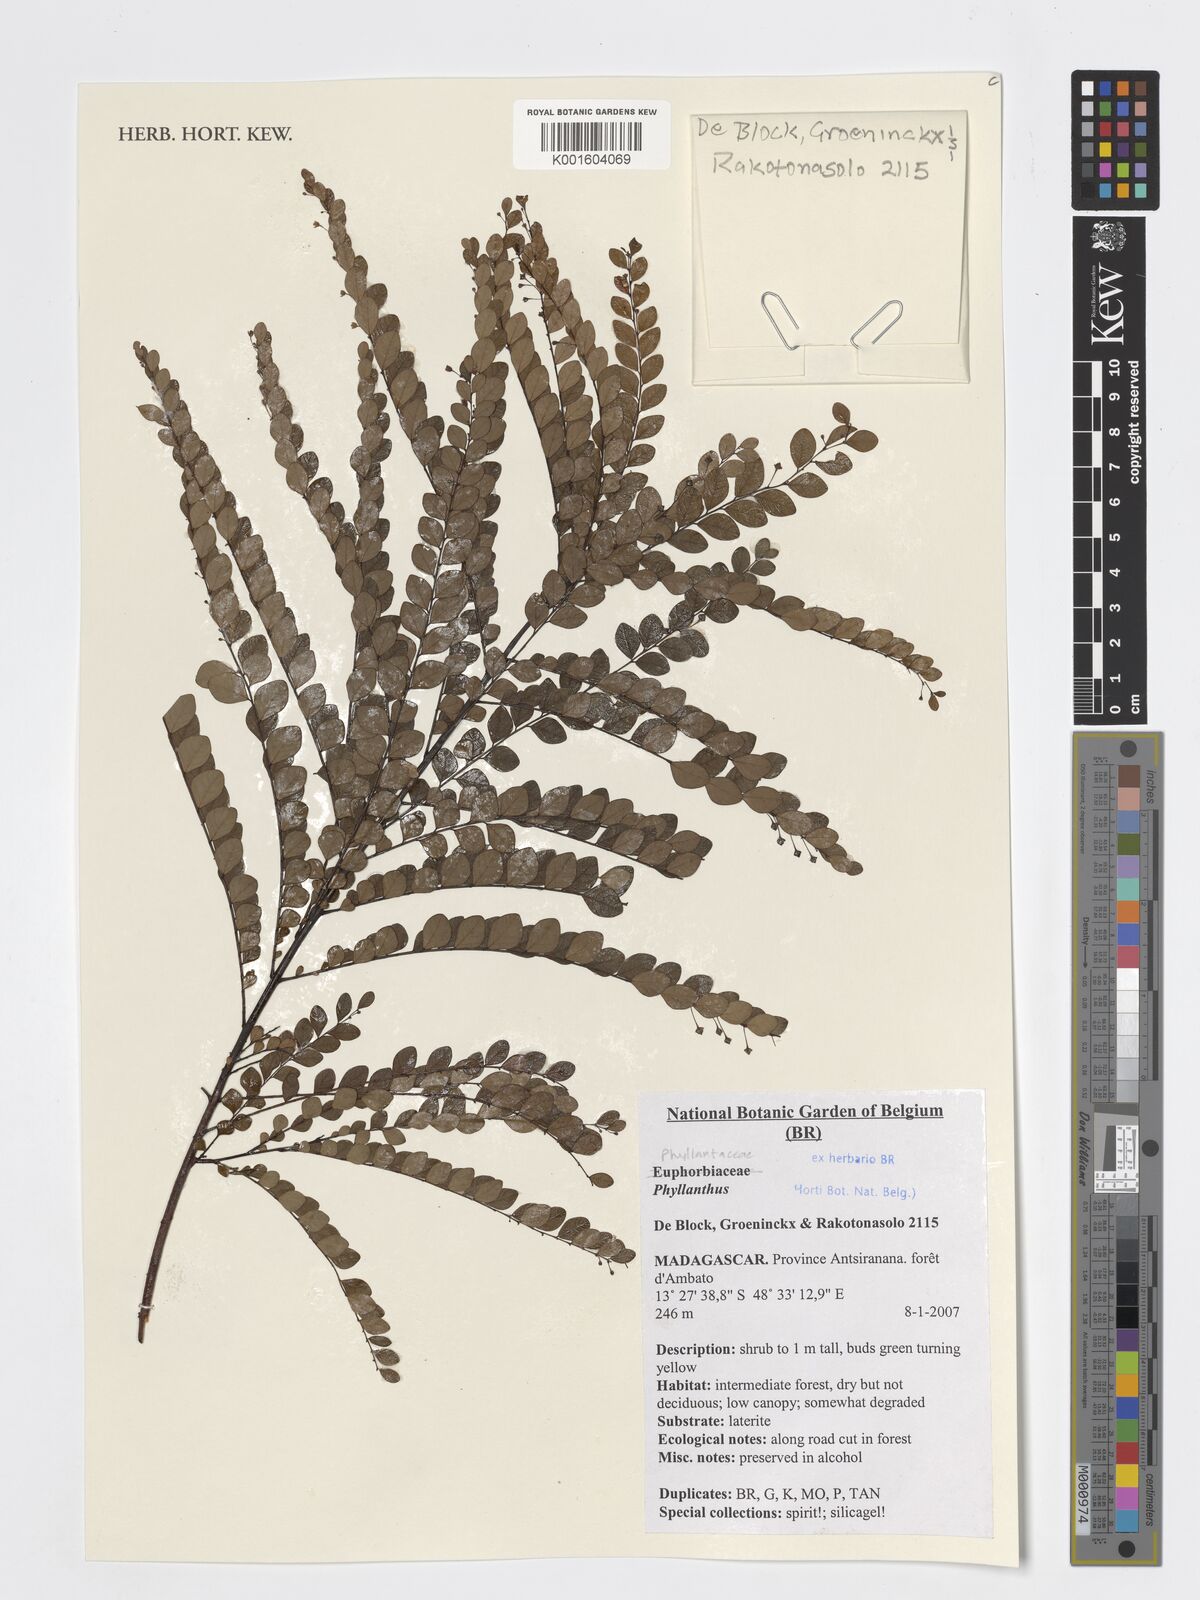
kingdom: Plantae
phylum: Tracheophyta
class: Magnoliopsida
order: Malpighiales
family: Phyllanthaceae
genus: Phyllanthus
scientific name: Phyllanthus
